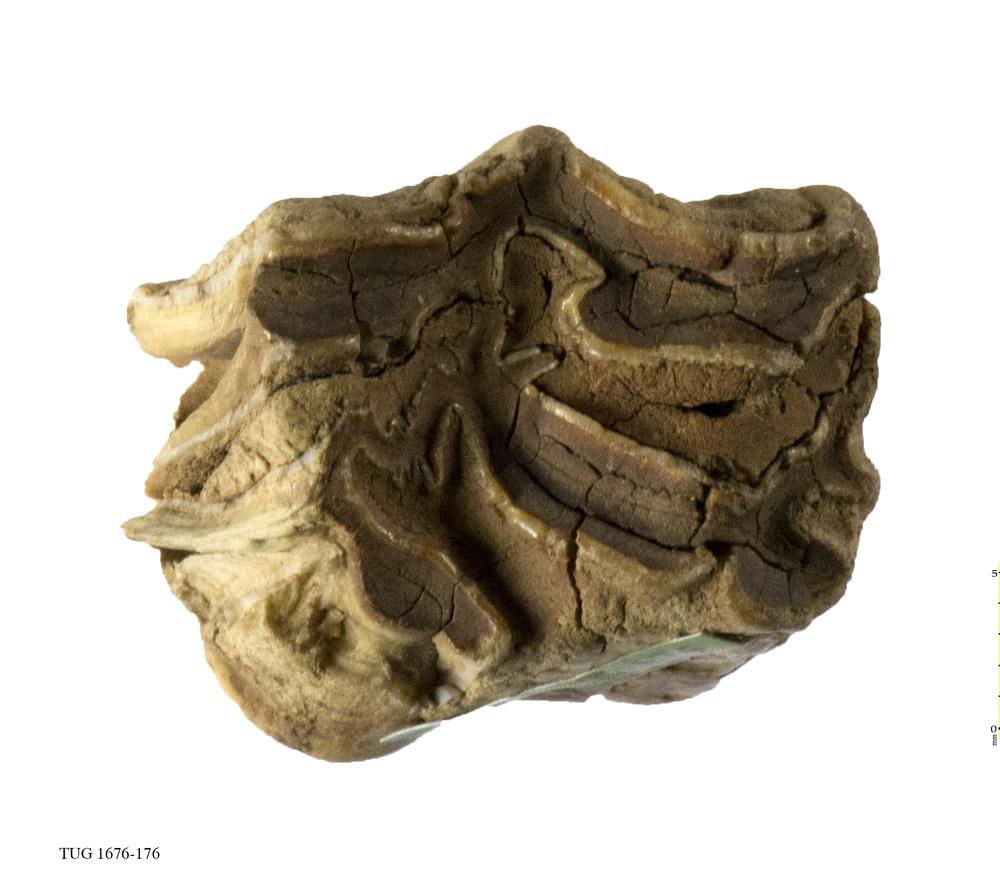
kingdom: Animalia
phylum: Chordata
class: Mammalia
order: Perissodactyla
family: Equidae
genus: Equus
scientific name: Equus ferus
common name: Russian wild horse
